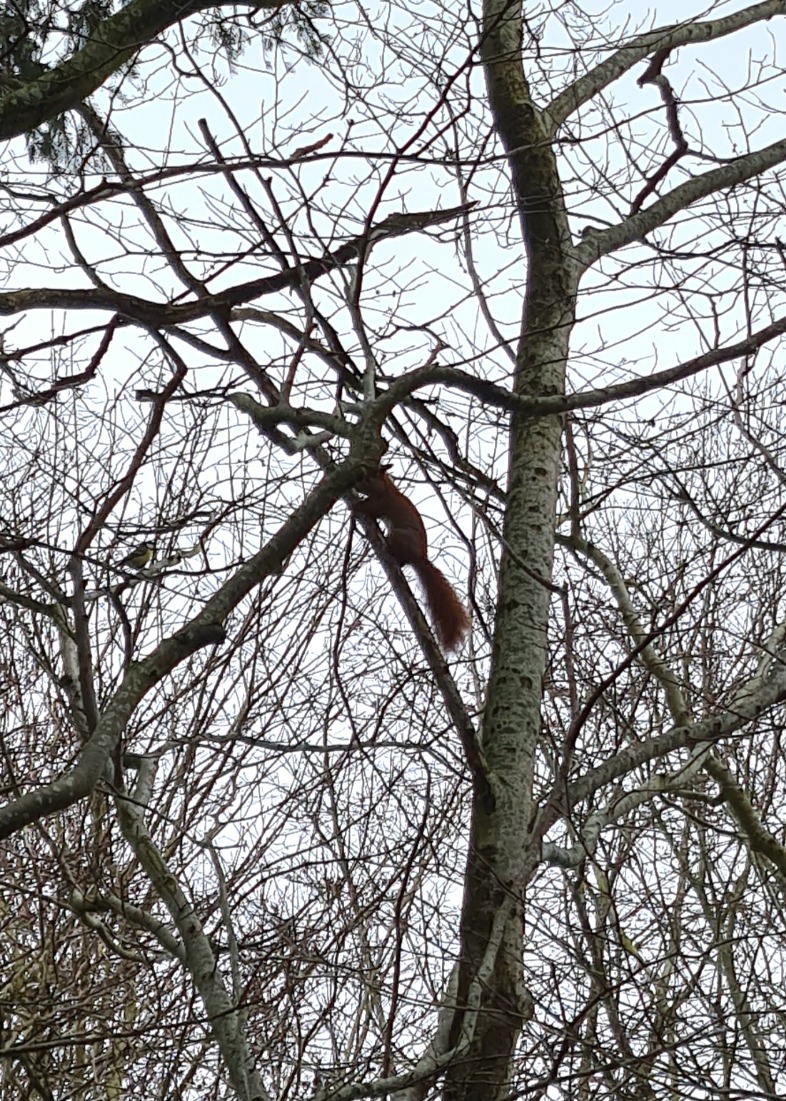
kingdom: Animalia
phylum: Chordata
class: Mammalia
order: Rodentia
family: Sciuridae
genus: Sciurus
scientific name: Sciurus vulgaris
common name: Egern
